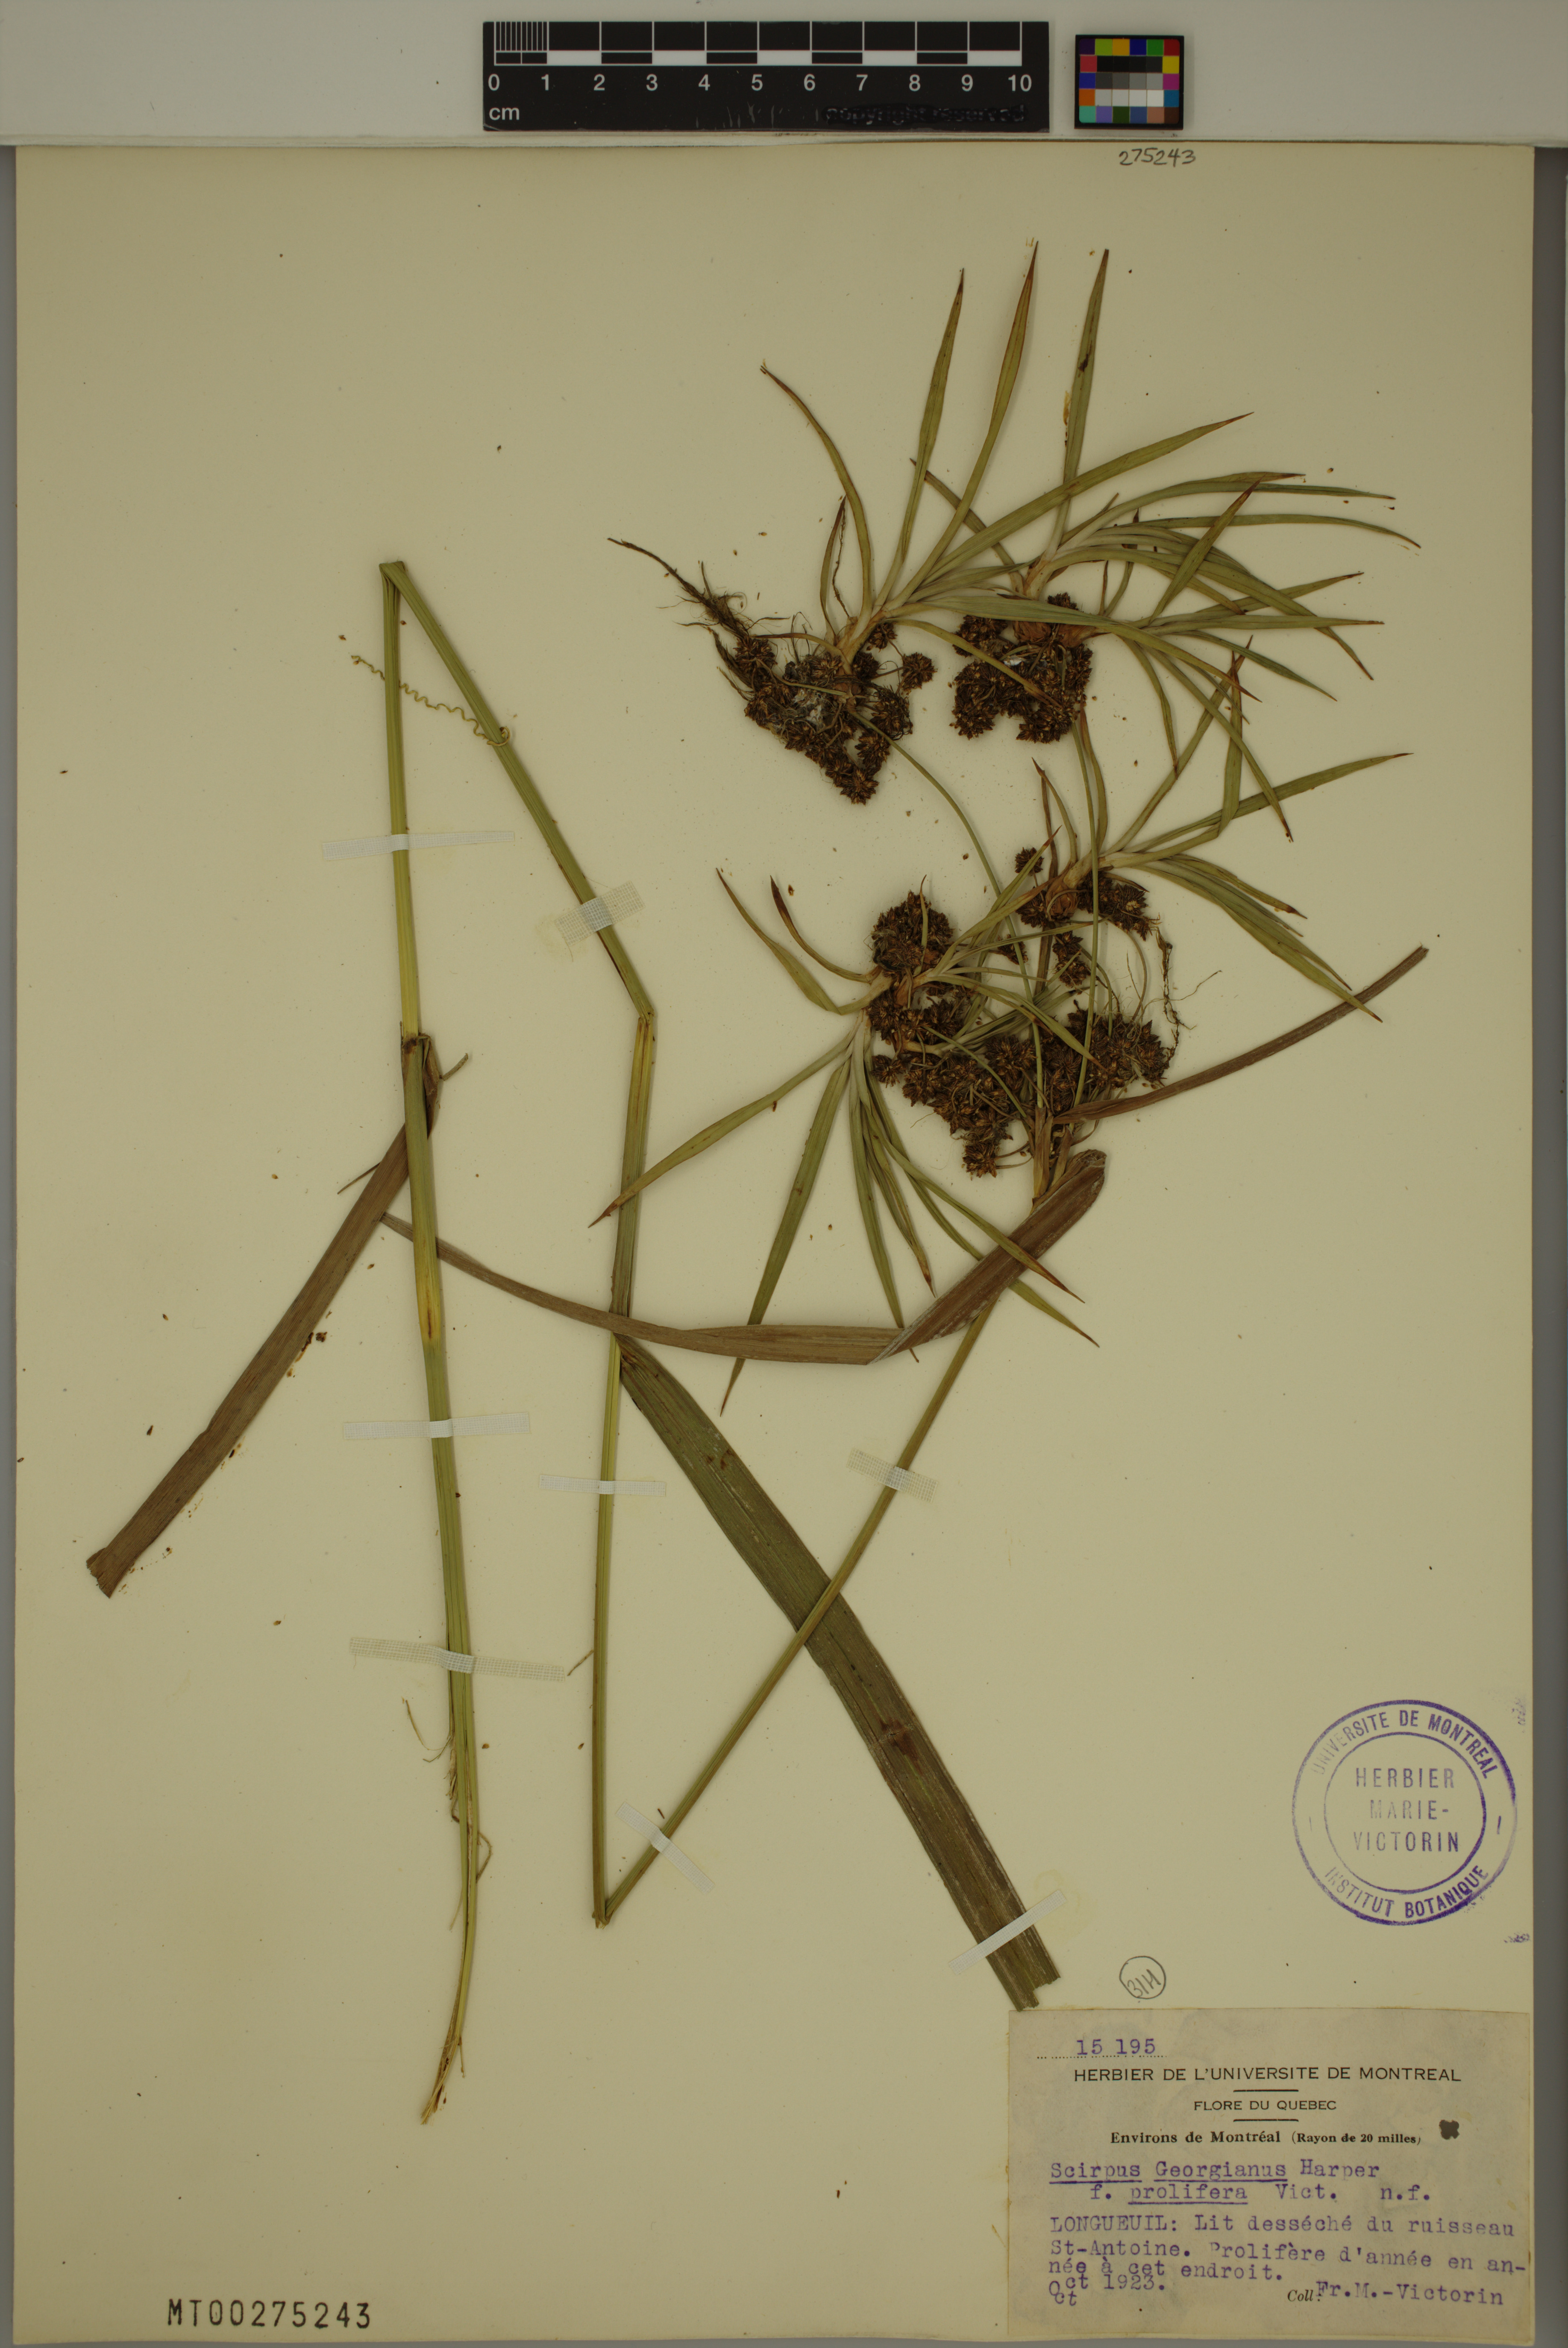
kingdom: Plantae
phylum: Tracheophyta
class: Liliopsida
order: Poales
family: Cyperaceae
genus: Scirpus
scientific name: Scirpus hattorianus
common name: Early dark-green bulrush
